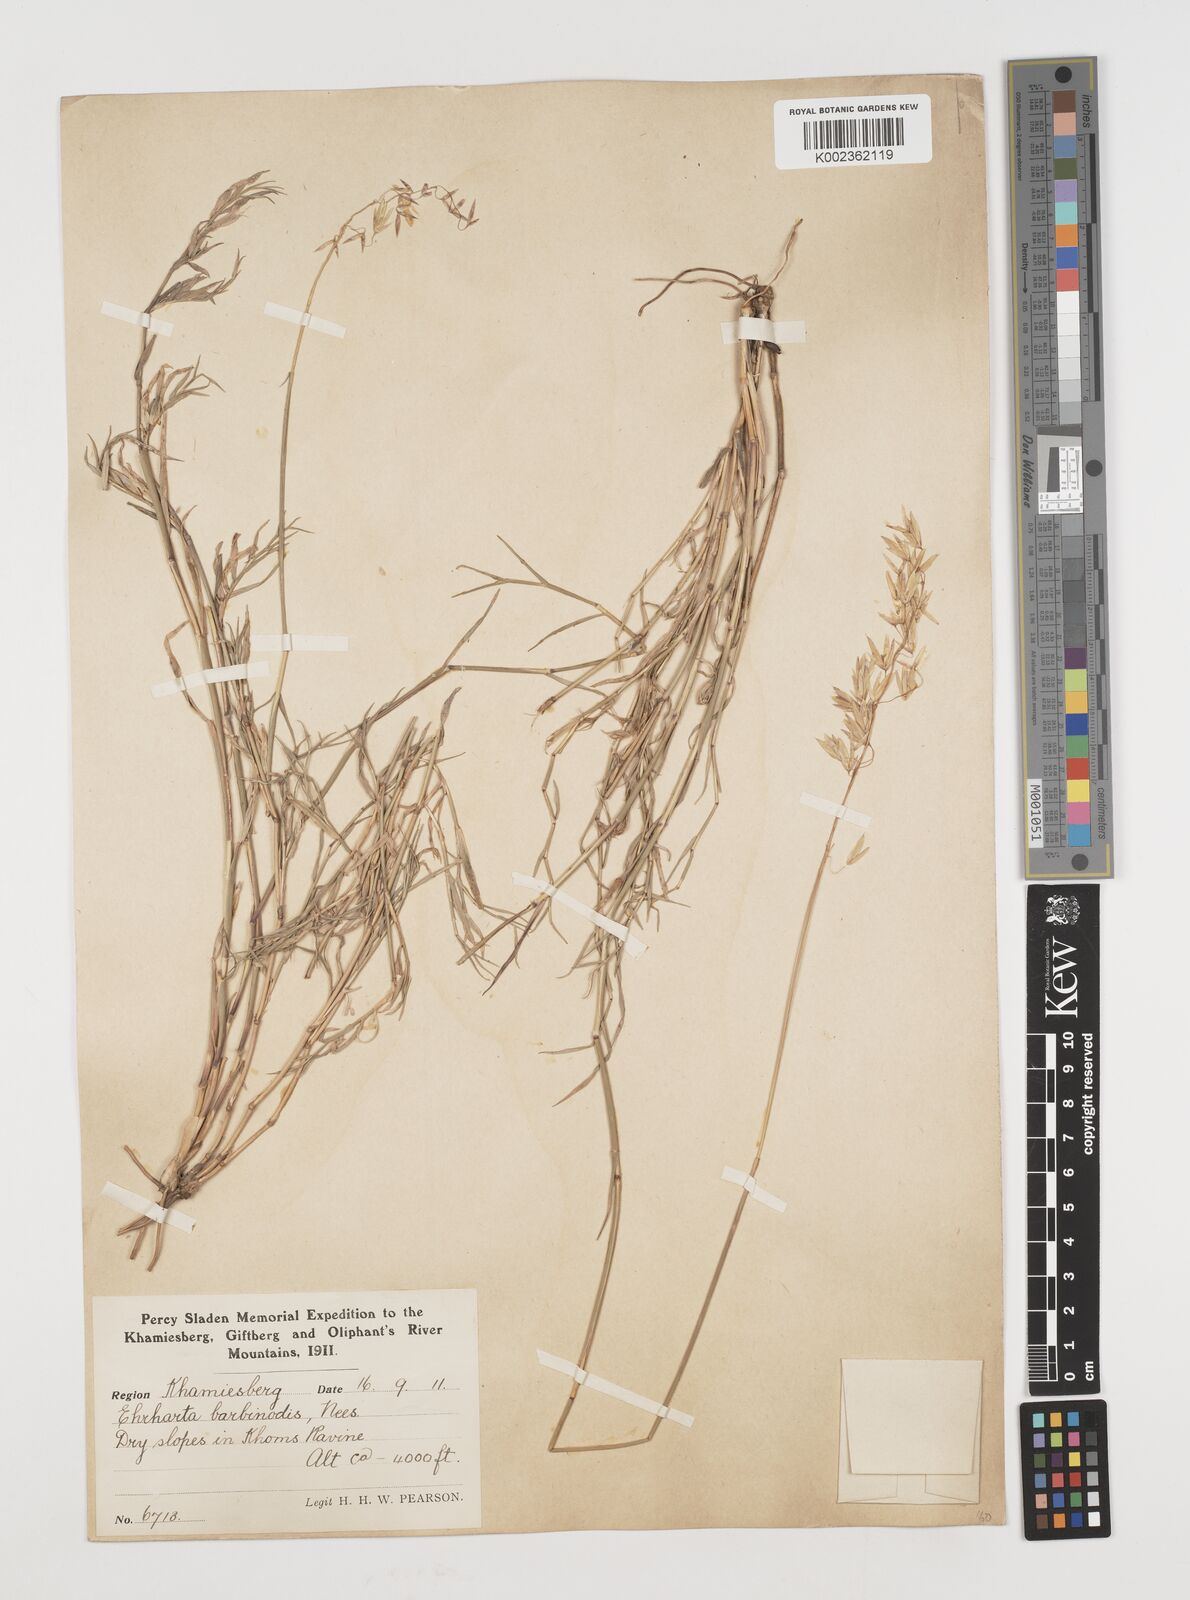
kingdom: Plantae
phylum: Tracheophyta
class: Liliopsida
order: Poales
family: Poaceae
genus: Ehrharta
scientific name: Ehrharta barbinodis
